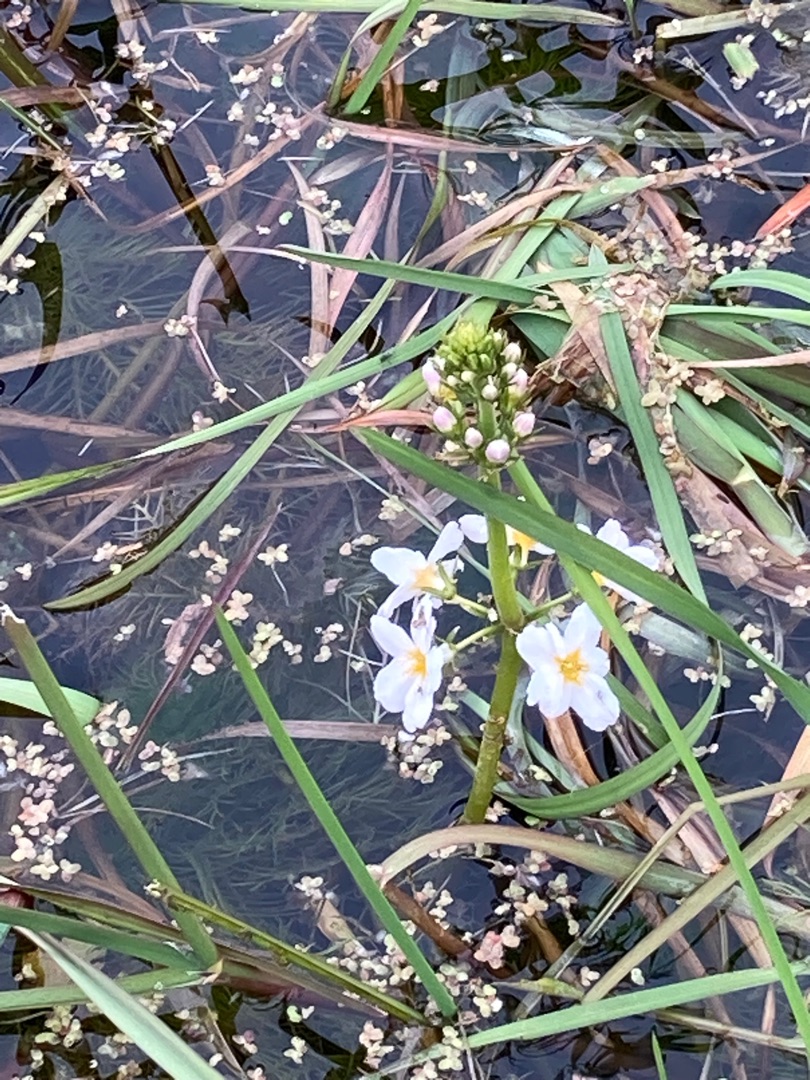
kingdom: Plantae
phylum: Tracheophyta
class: Magnoliopsida
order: Ericales
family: Primulaceae
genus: Hottonia
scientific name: Hottonia palustris
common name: Vandrøllike
